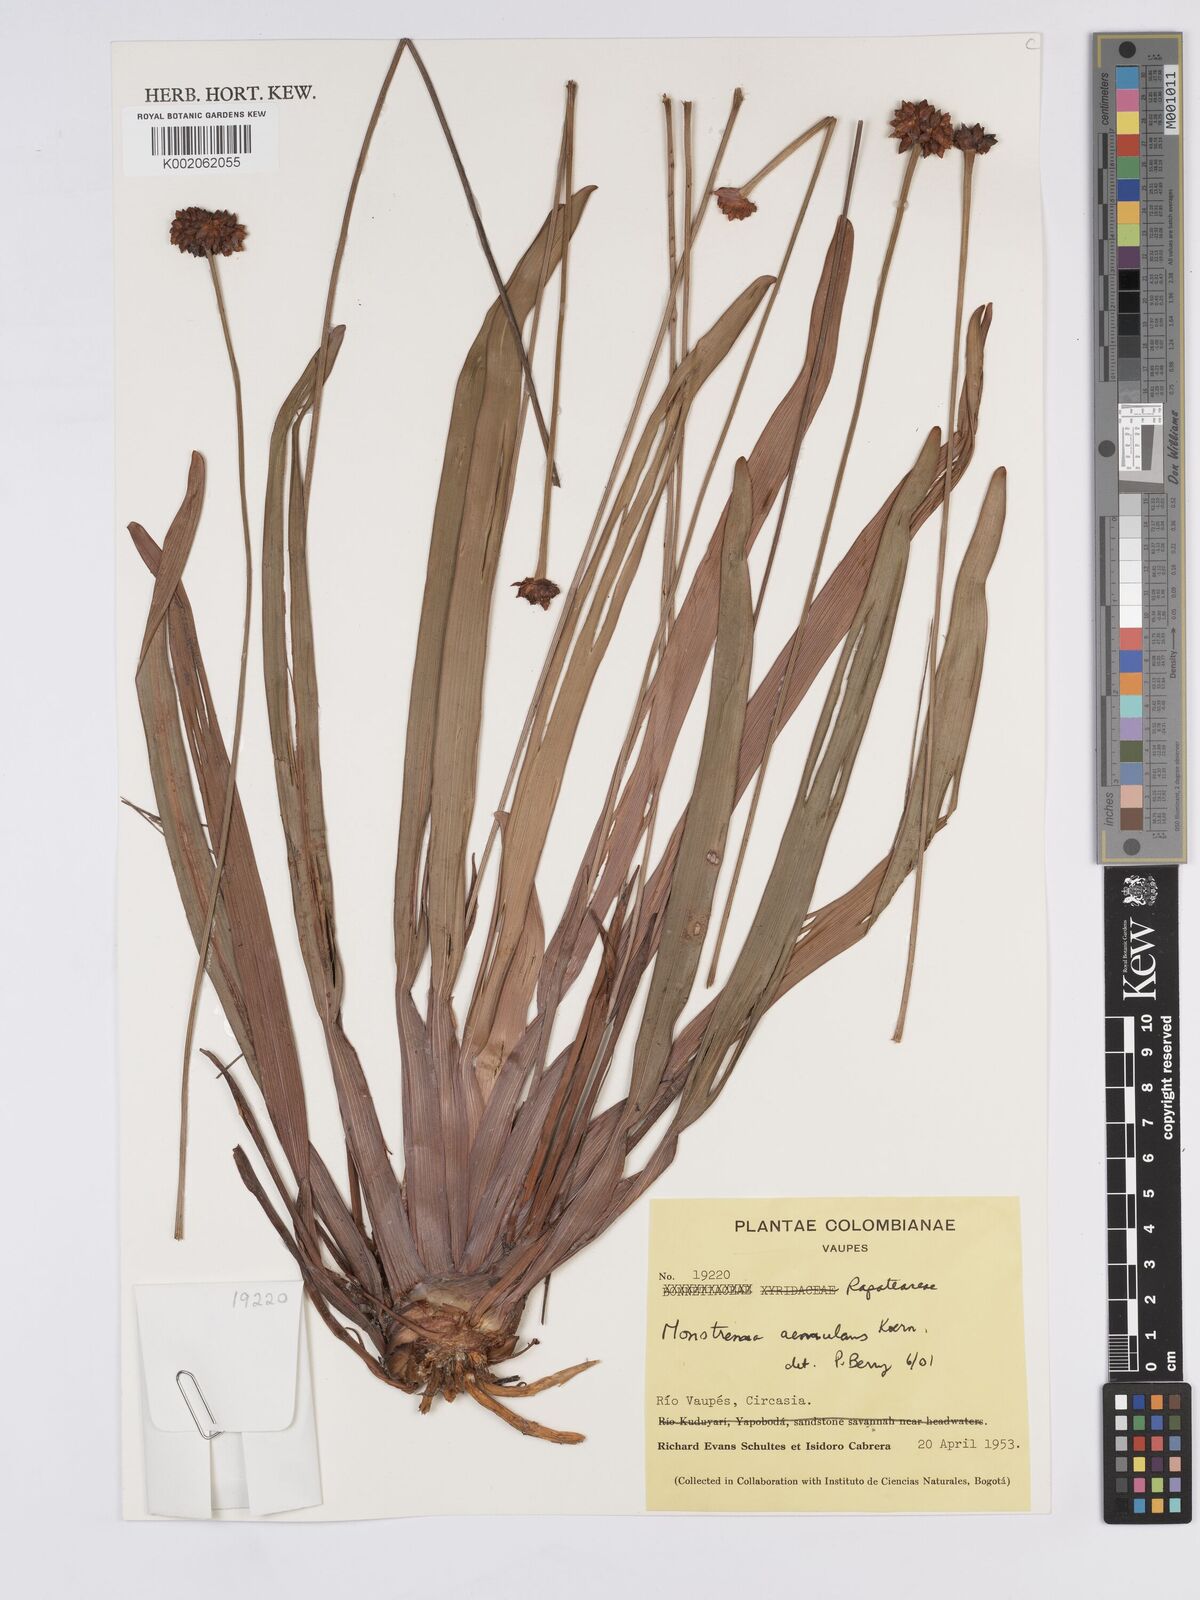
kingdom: Plantae
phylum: Tracheophyta
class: Liliopsida
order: Poales
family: Rapateaceae
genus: Monotrema
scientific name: Monotrema aemulans
